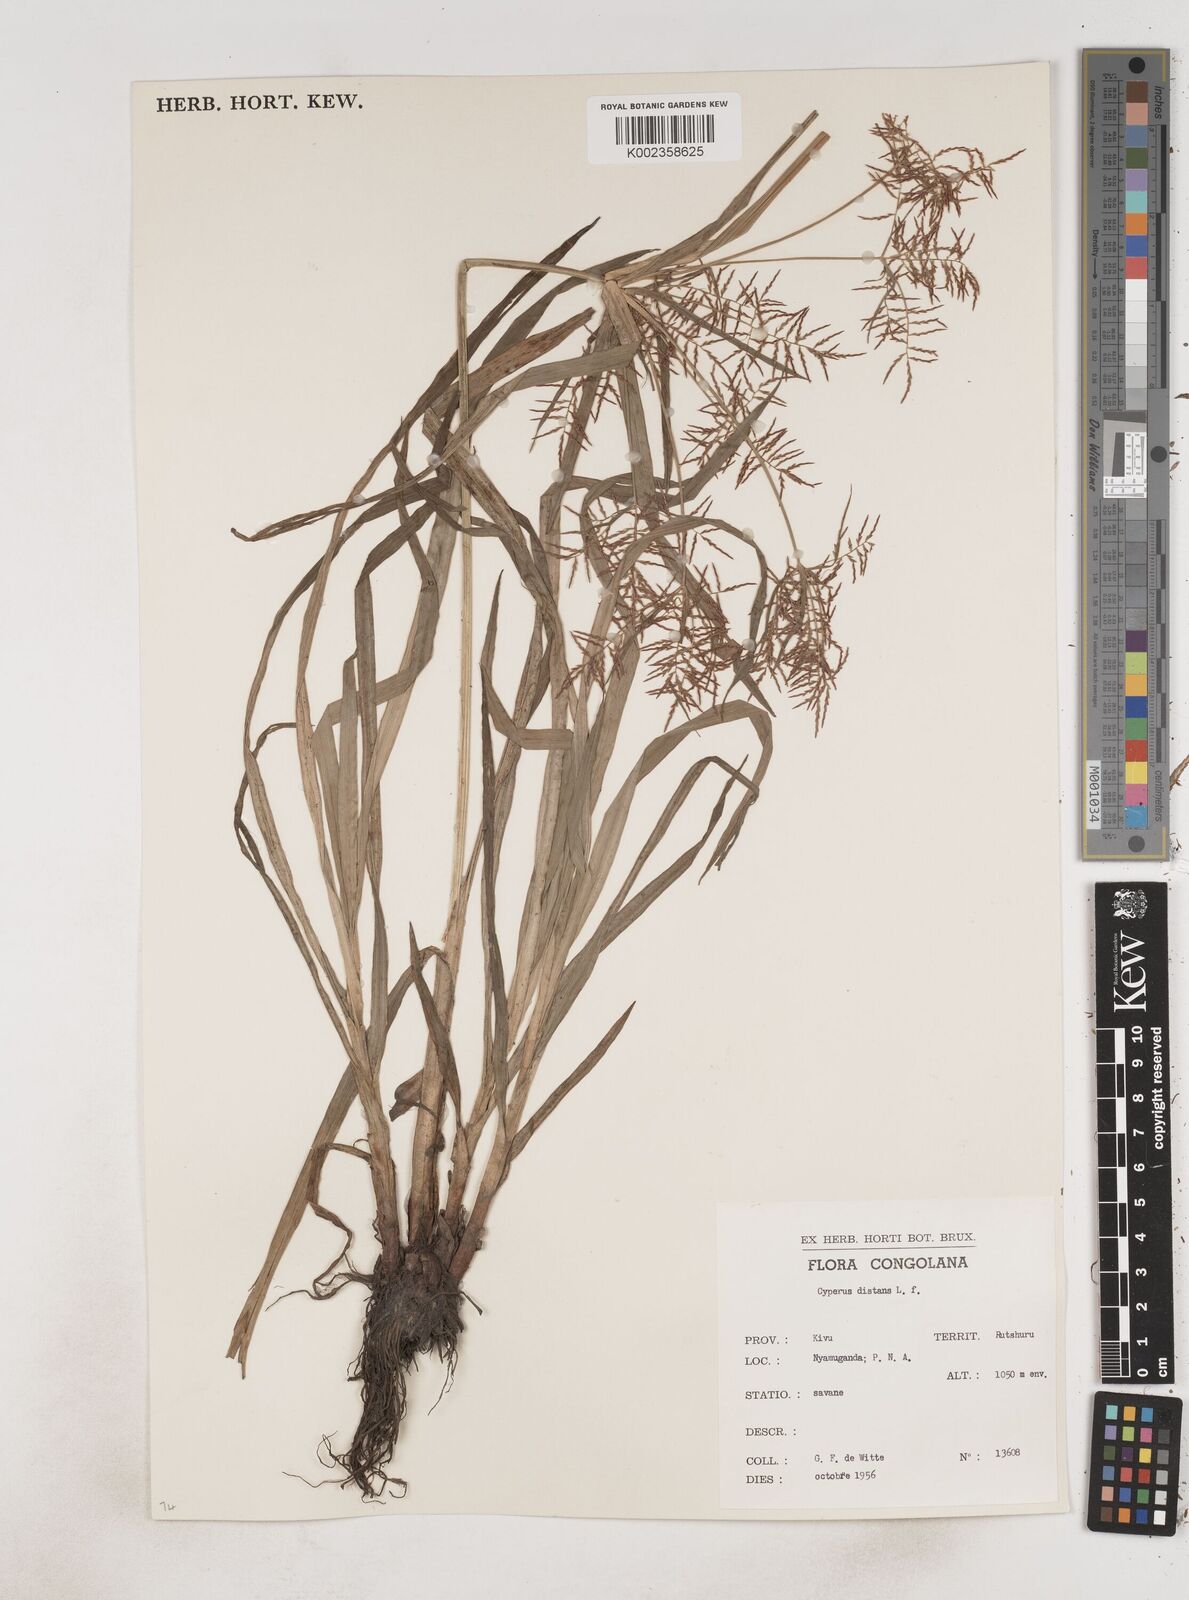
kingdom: Plantae
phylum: Tracheophyta
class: Liliopsida
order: Poales
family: Cyperaceae
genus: Cyperus
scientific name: Cyperus distans
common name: Slender cyperus
